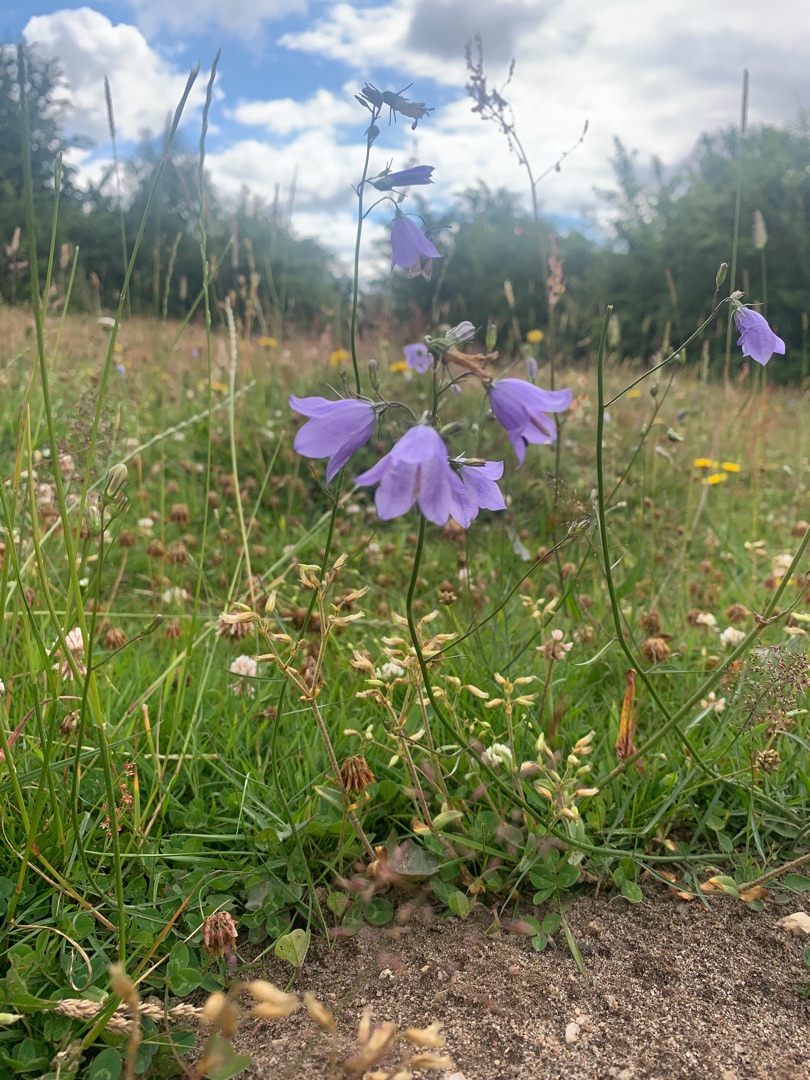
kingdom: Plantae
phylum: Tracheophyta
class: Magnoliopsida
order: Asterales
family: Campanulaceae
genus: Campanula
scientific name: Campanula rotundifolia
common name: Liden klokke
